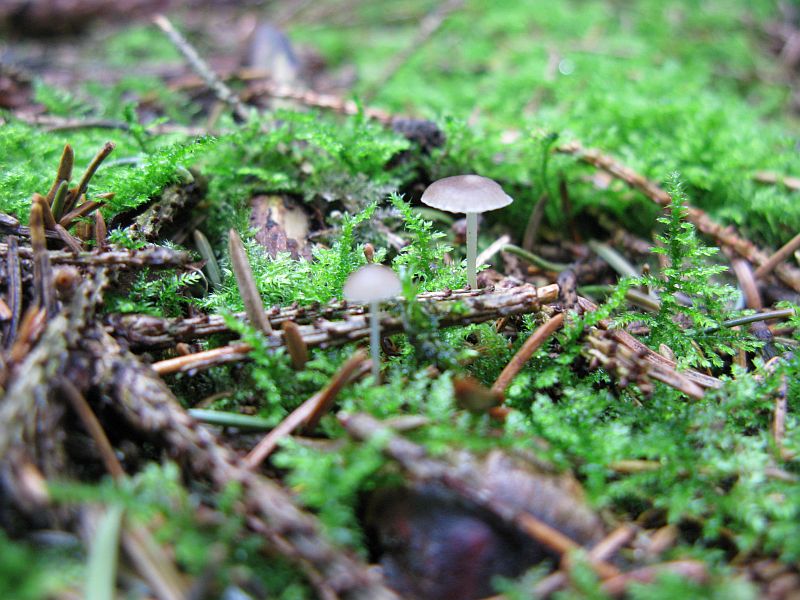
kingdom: Fungi
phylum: Basidiomycota
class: Agaricomycetes
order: Agaricales
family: Physalacriaceae
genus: Strobilurus
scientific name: Strobilurus esculentus
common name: gran-koglehat
